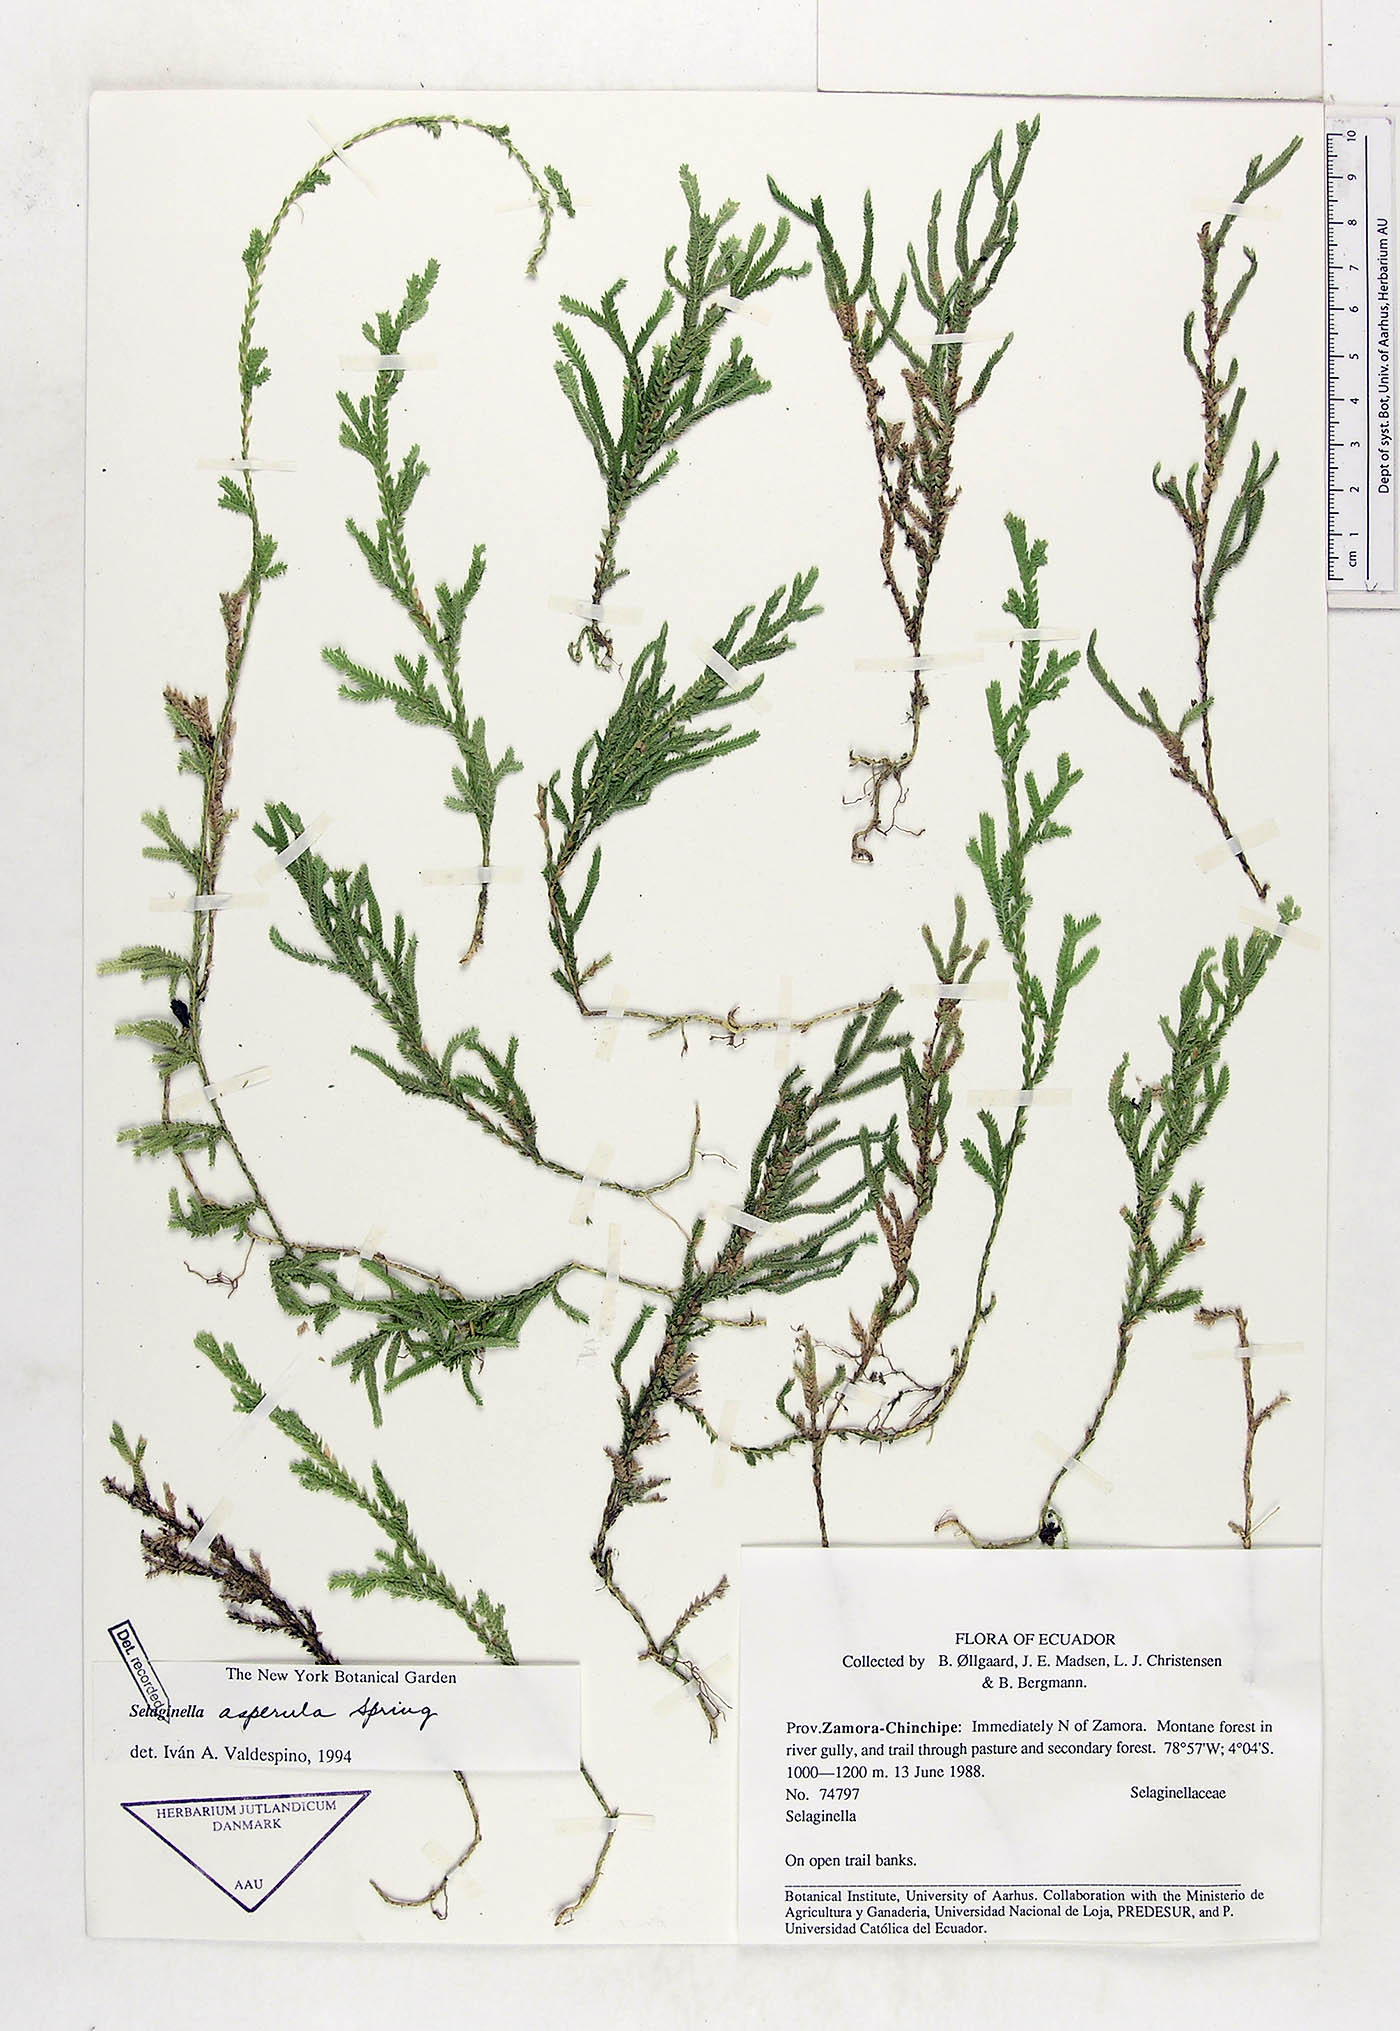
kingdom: Plantae
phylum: Tracheophyta
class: Lycopodiopsida
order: Selaginellales
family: Selaginellaceae
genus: Selaginella
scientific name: Selaginella asperula
